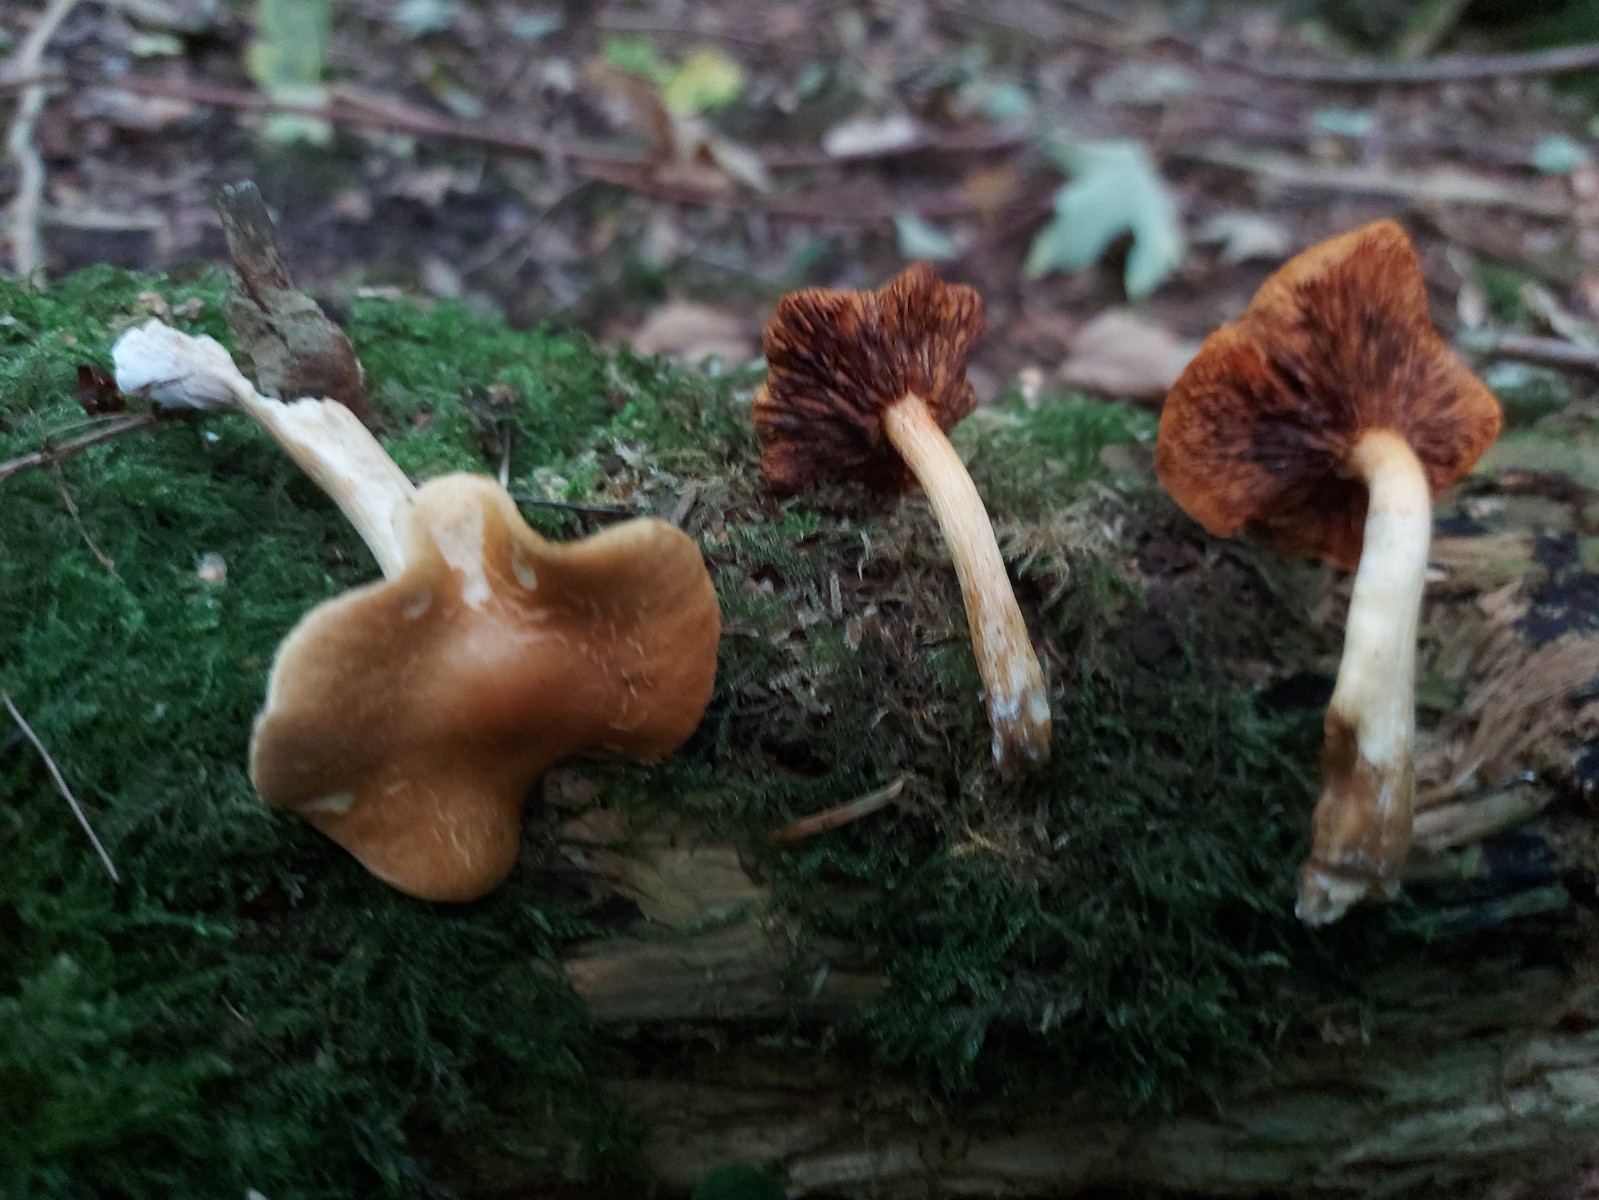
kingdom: Fungi
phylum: Basidiomycota
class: Agaricomycetes
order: Agaricales
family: Hymenogastraceae
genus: Gymnopilus
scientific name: Gymnopilus penetrans
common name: plettet flammehat
